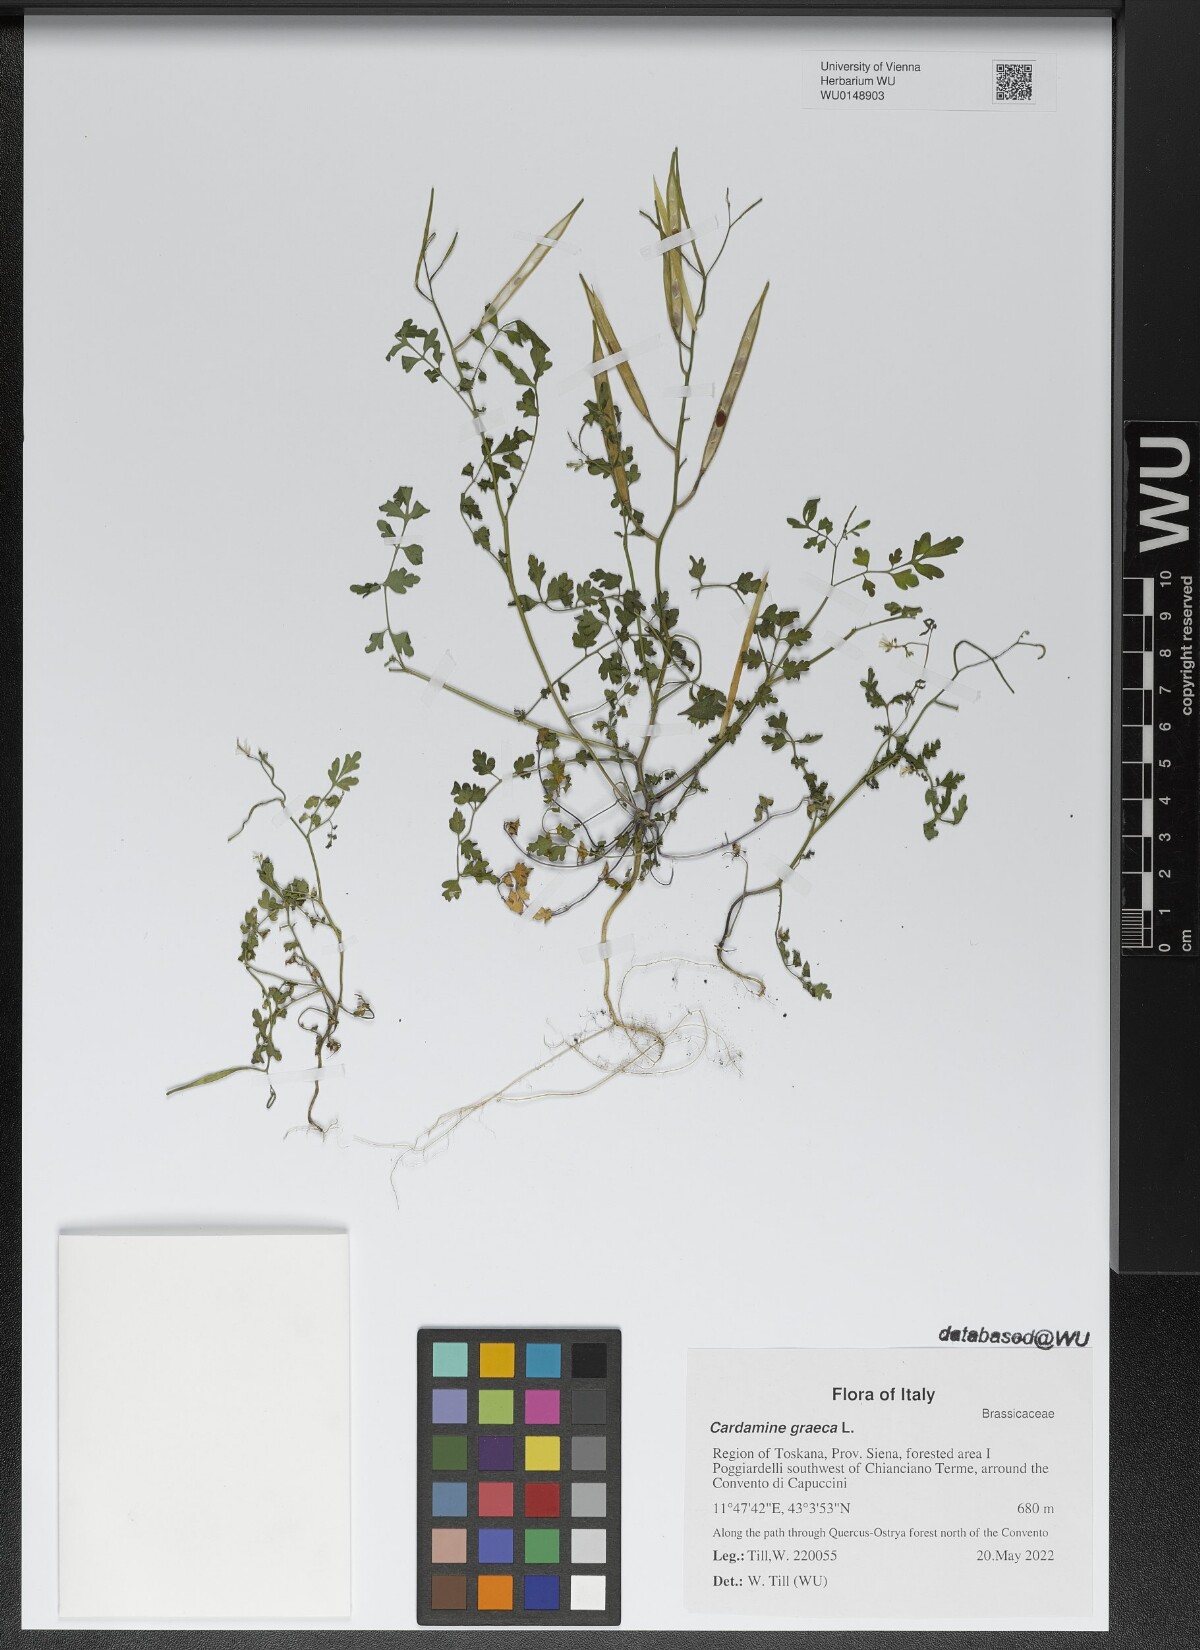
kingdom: Plantae
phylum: Tracheophyta
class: Magnoliopsida
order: Brassicales
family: Brassicaceae
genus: Cardamine
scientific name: Cardamine graeca
